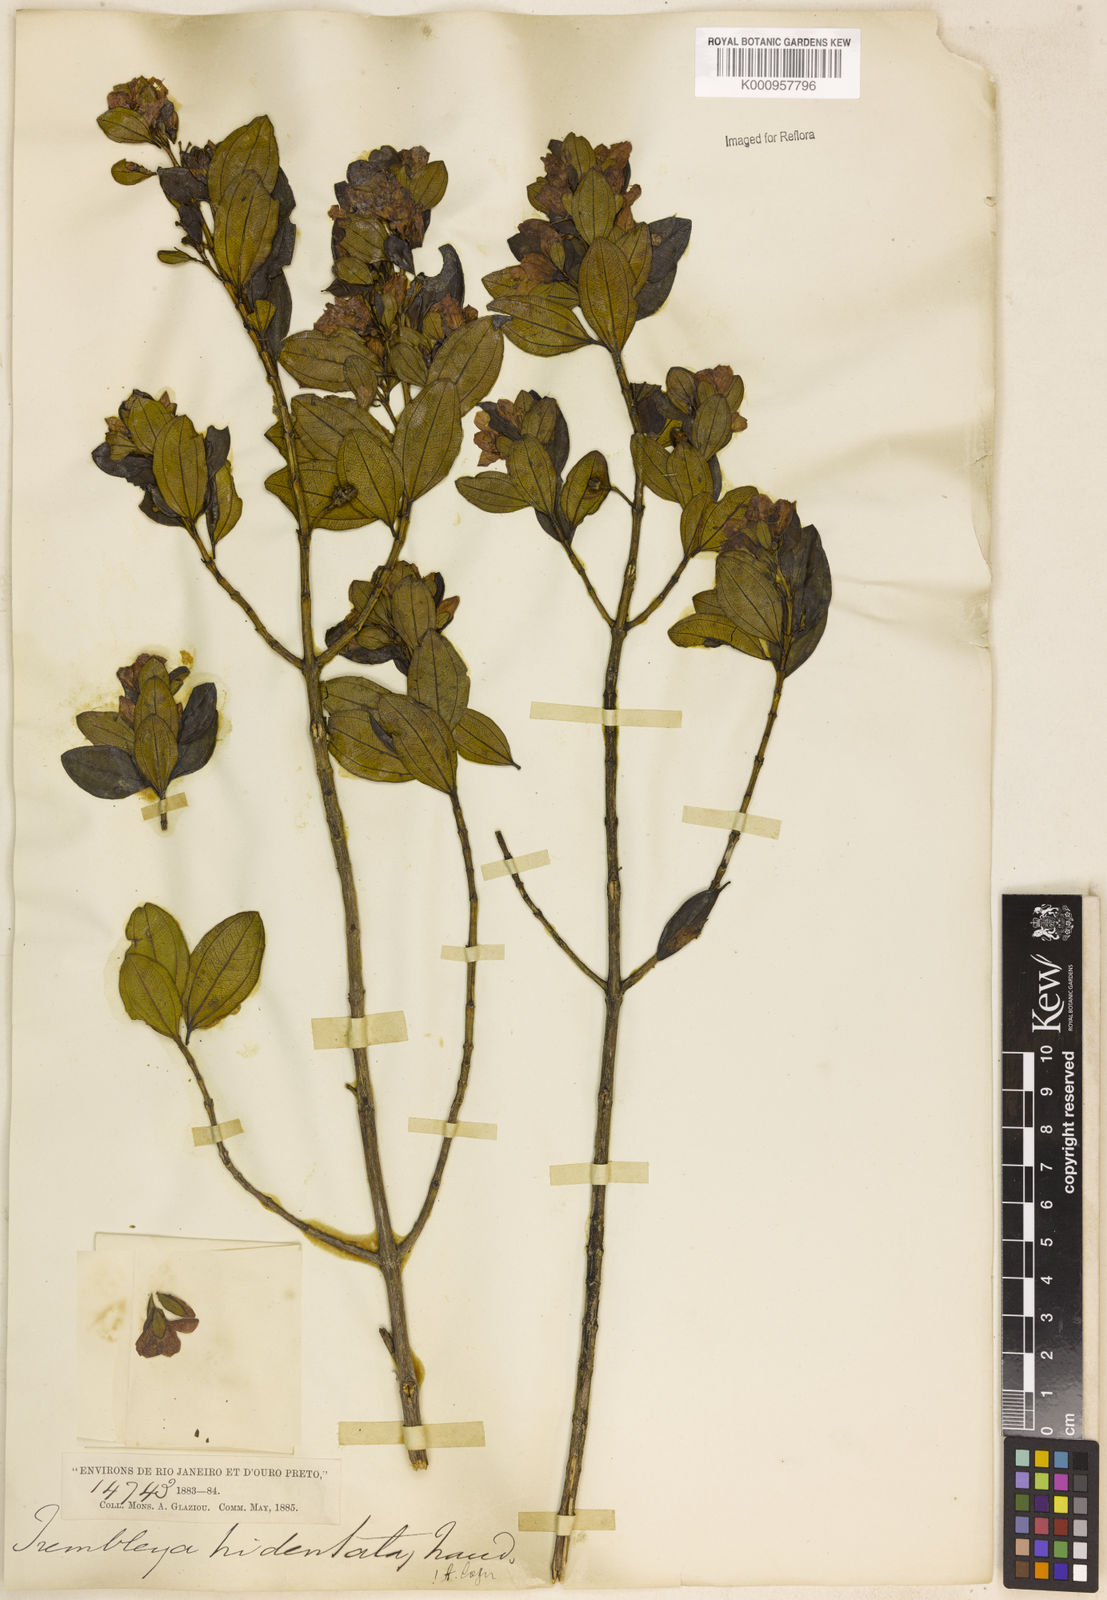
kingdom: Plantae
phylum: Tracheophyta
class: Magnoliopsida
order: Myrtales
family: Melastomataceae
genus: Microlicia
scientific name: Microlicia tridentata
